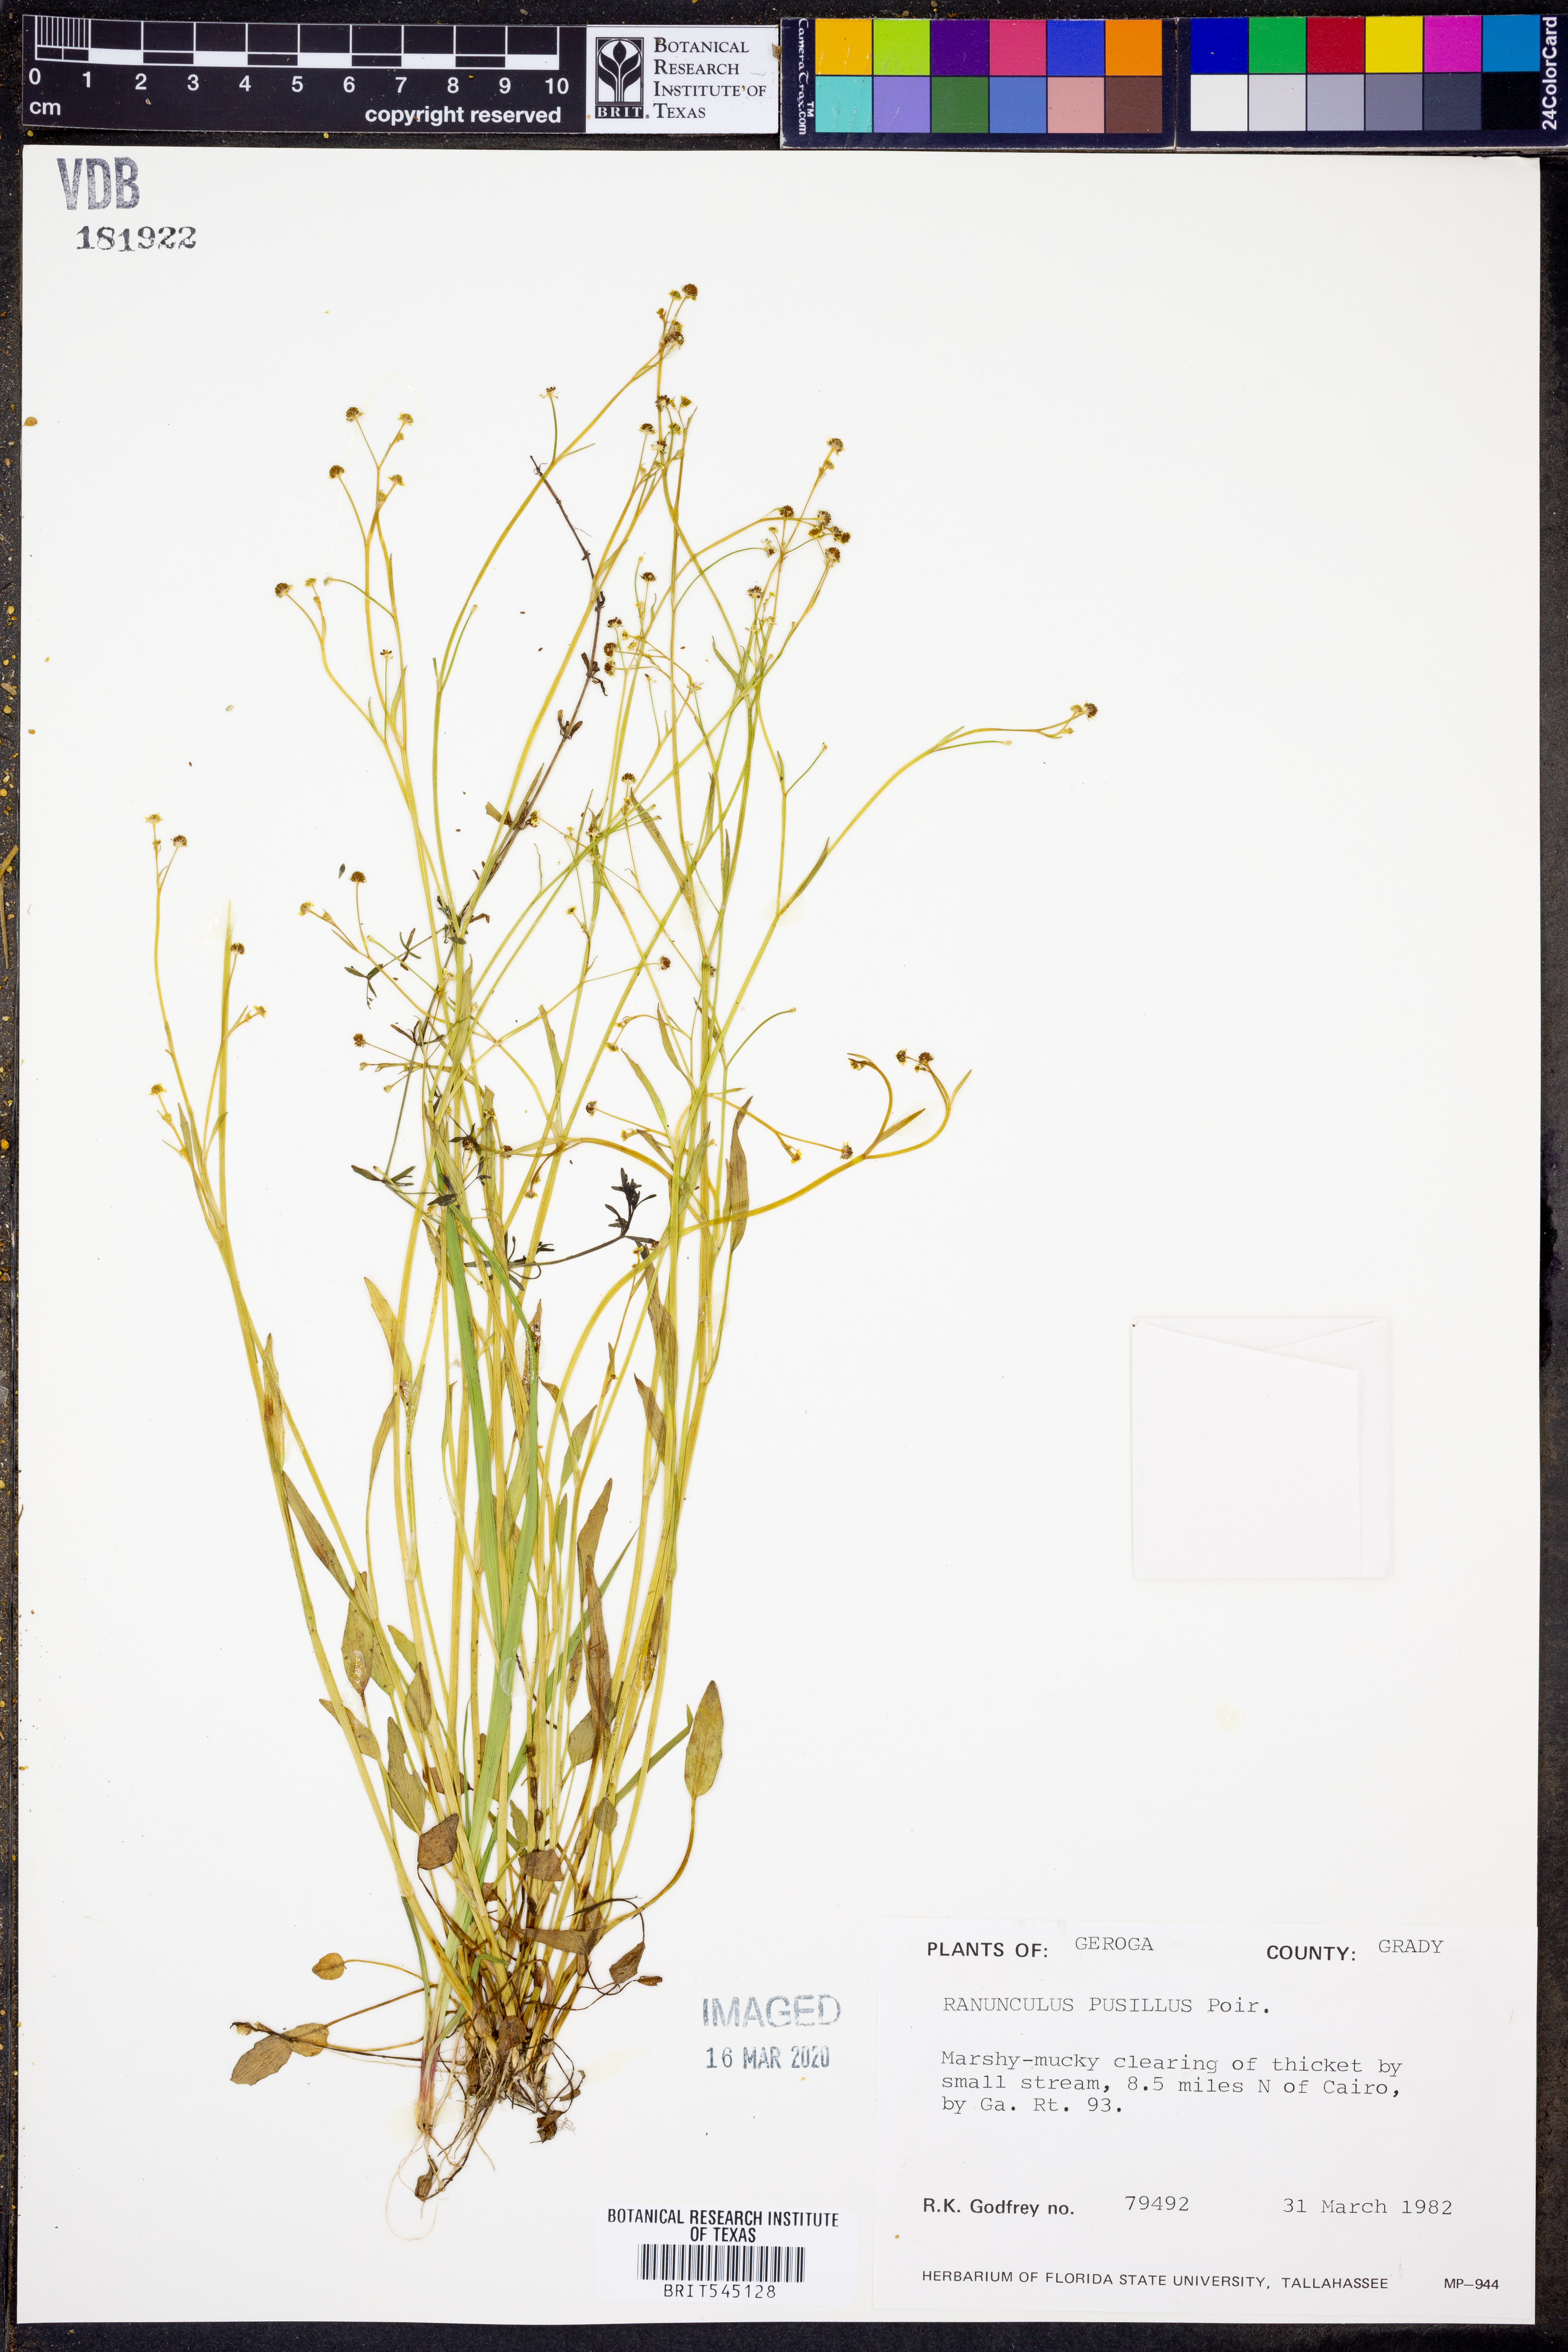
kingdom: Plantae
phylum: Tracheophyta
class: Magnoliopsida
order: Ranunculales
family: Ranunculaceae
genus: Ranunculus
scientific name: Ranunculus pusillus
